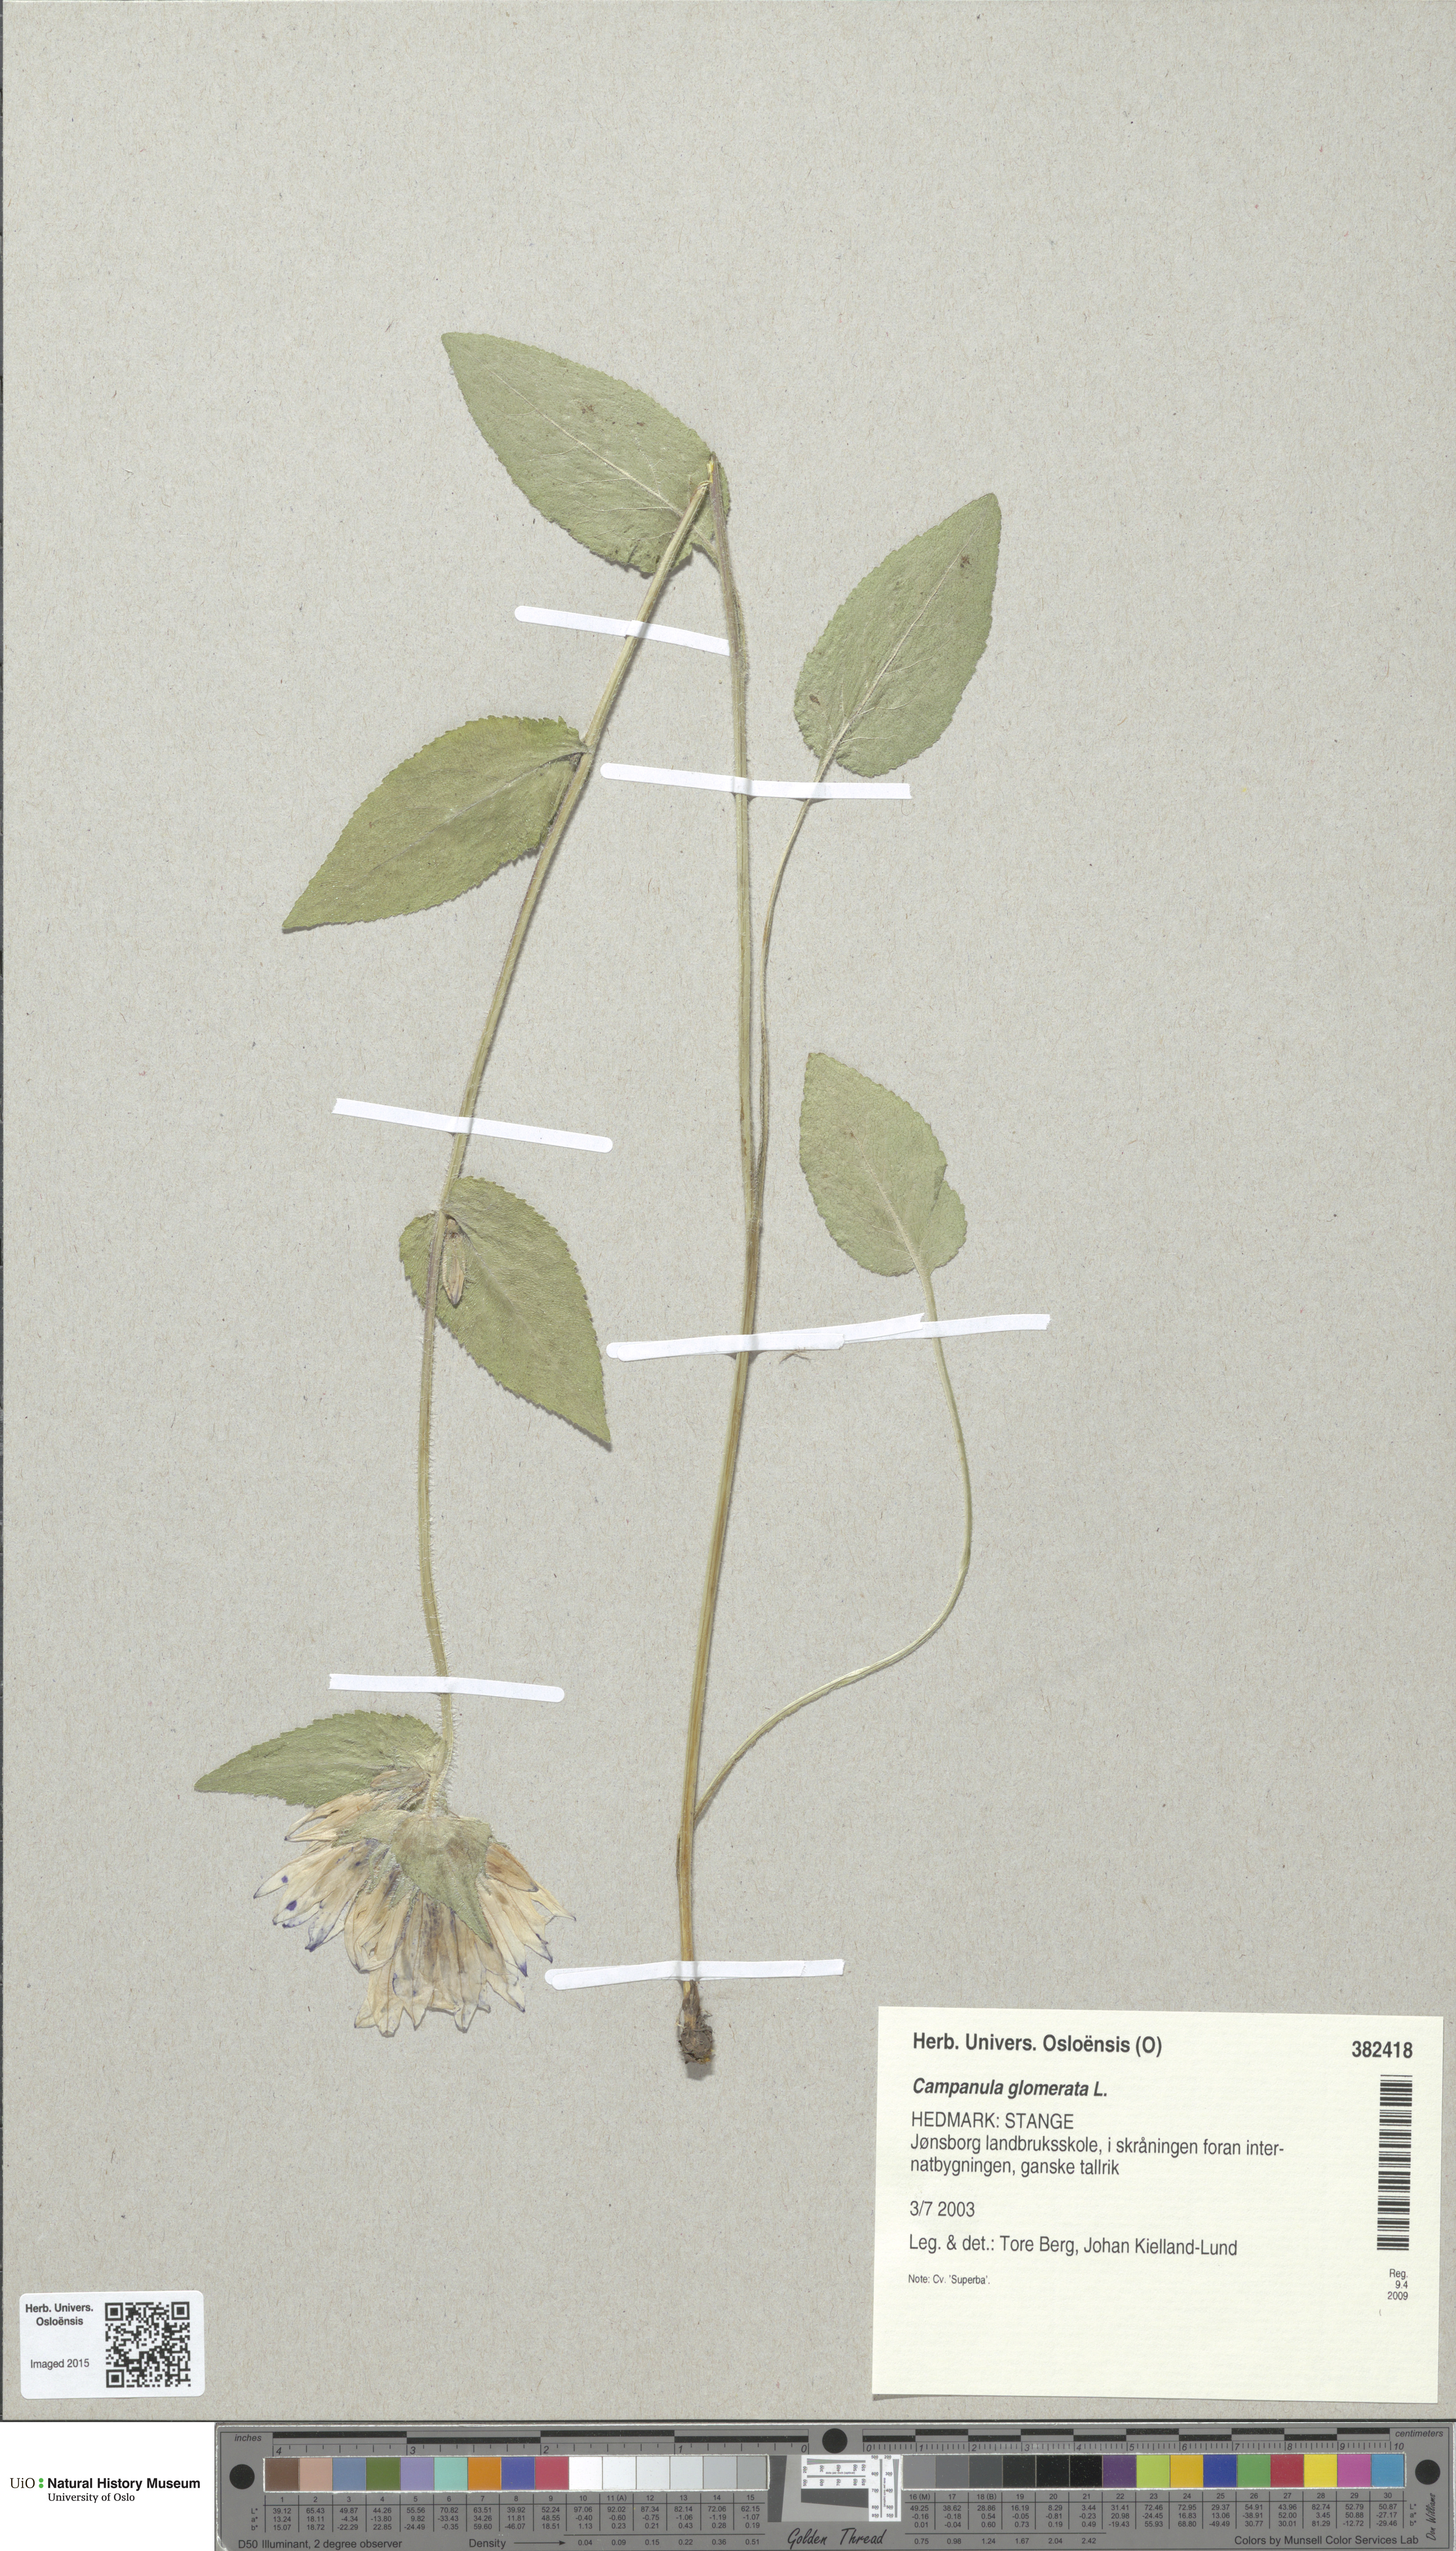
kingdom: Plantae
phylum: Tracheophyta
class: Magnoliopsida
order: Asterales
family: Campanulaceae
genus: Campanula
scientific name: Campanula glomerata
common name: Clustered bellflower
